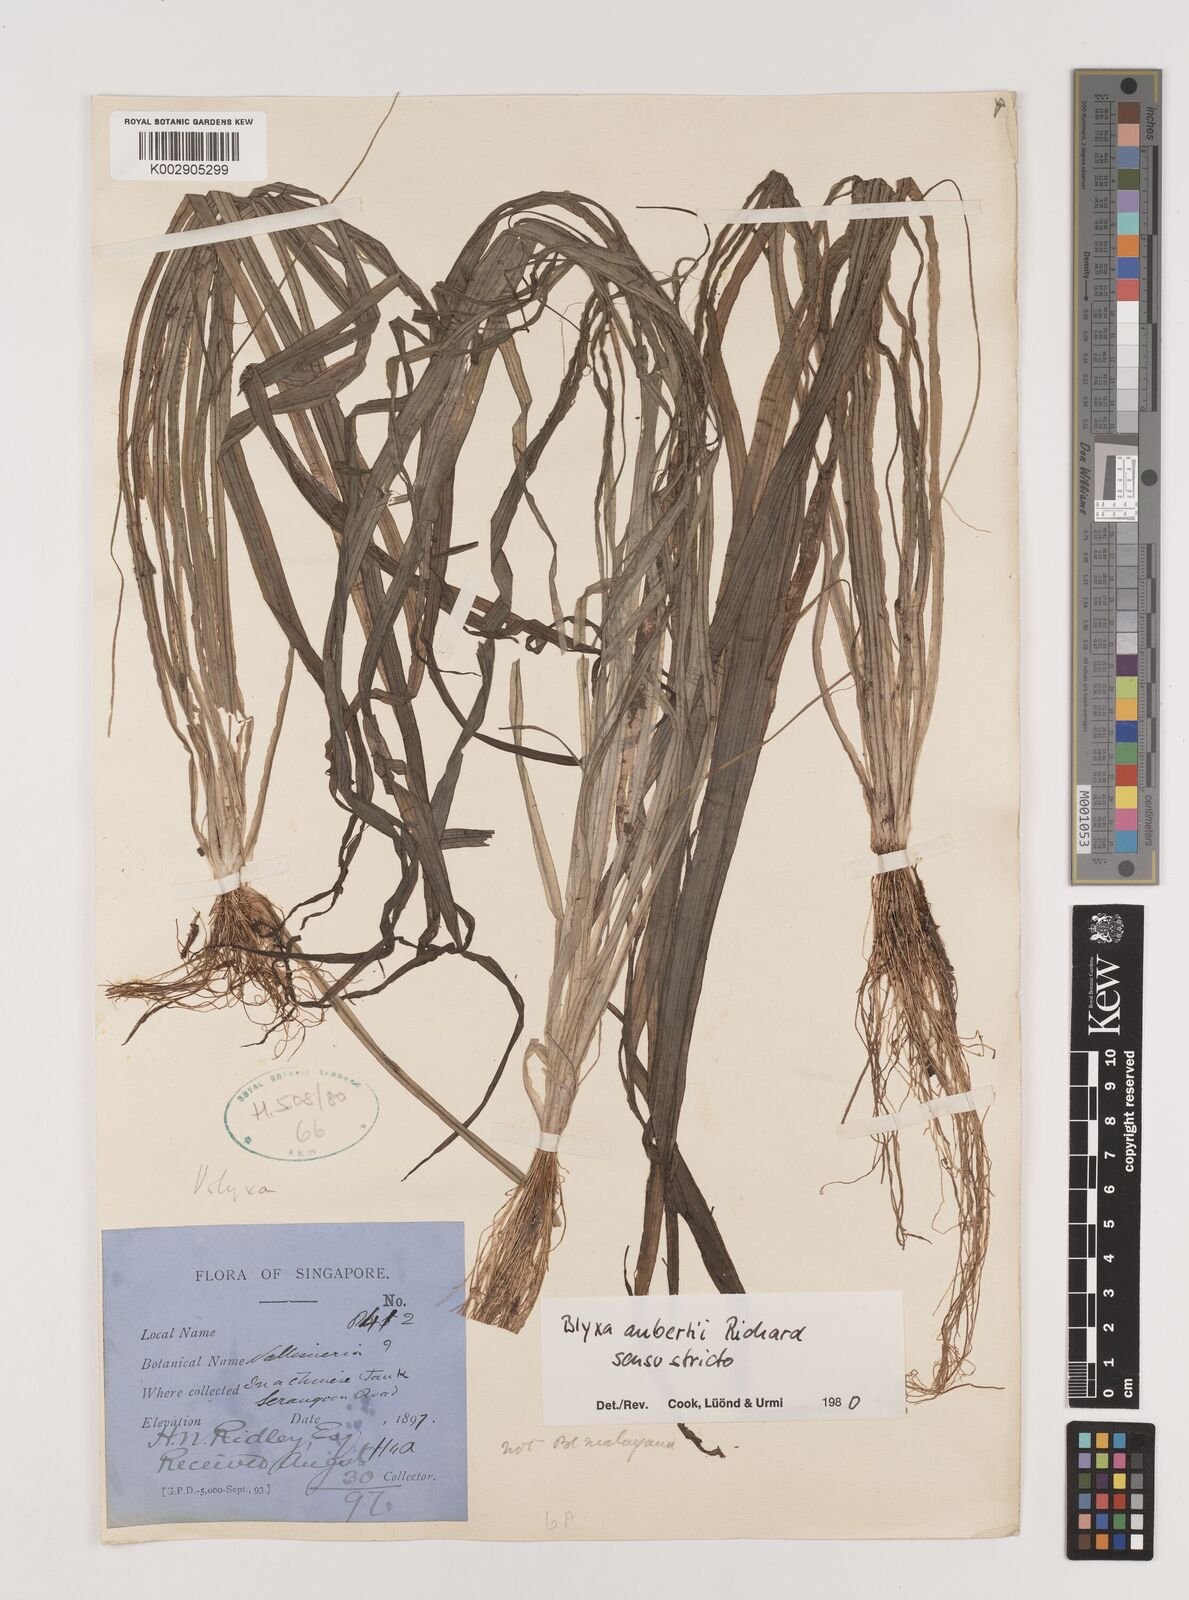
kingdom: Plantae
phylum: Tracheophyta
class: Liliopsida
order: Alismatales
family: Hydrocharitaceae
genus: Blyxa
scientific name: Blyxa aubertii
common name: Roundfruit blyxa
